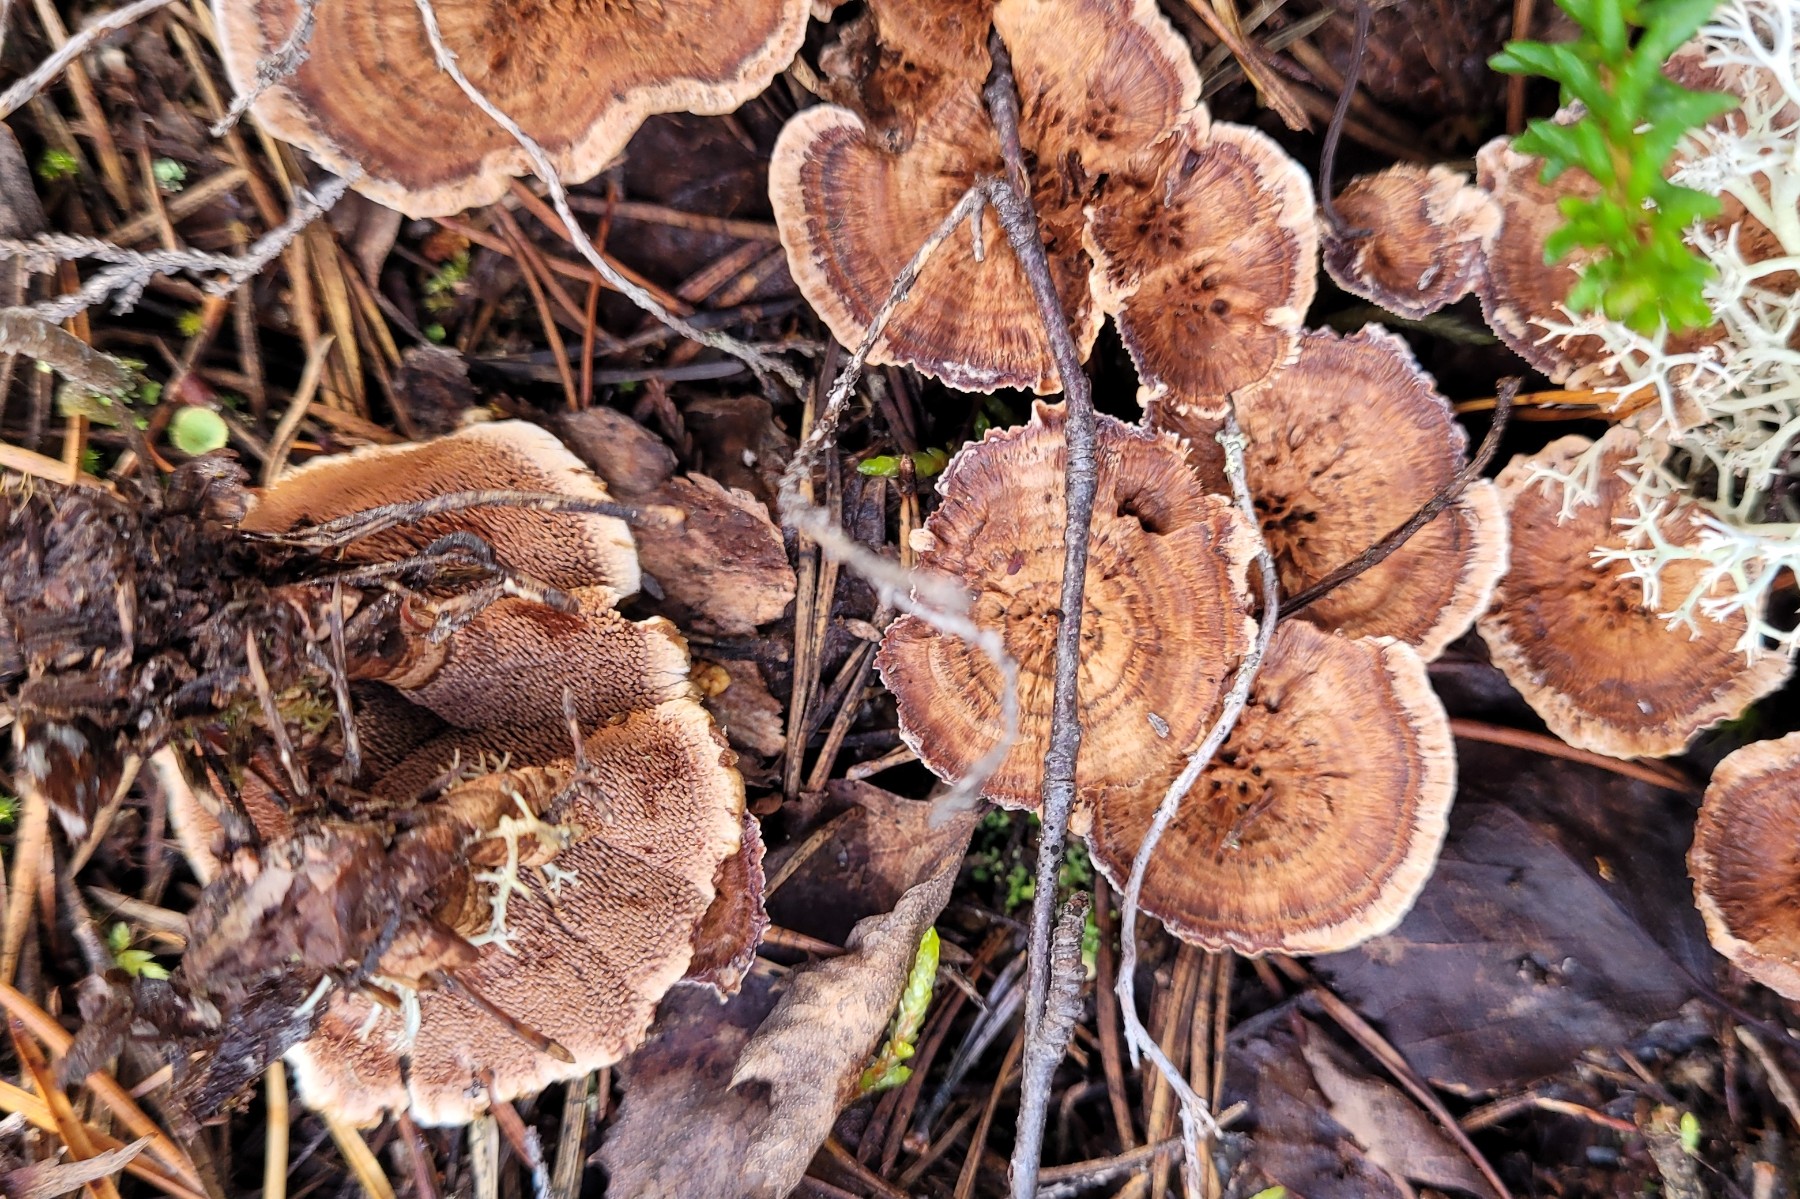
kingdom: Fungi
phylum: Basidiomycota
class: Agaricomycetes
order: Thelephorales
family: Bankeraceae
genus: Hydnellum
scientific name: Hydnellum concrescens
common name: Zoned tooth
